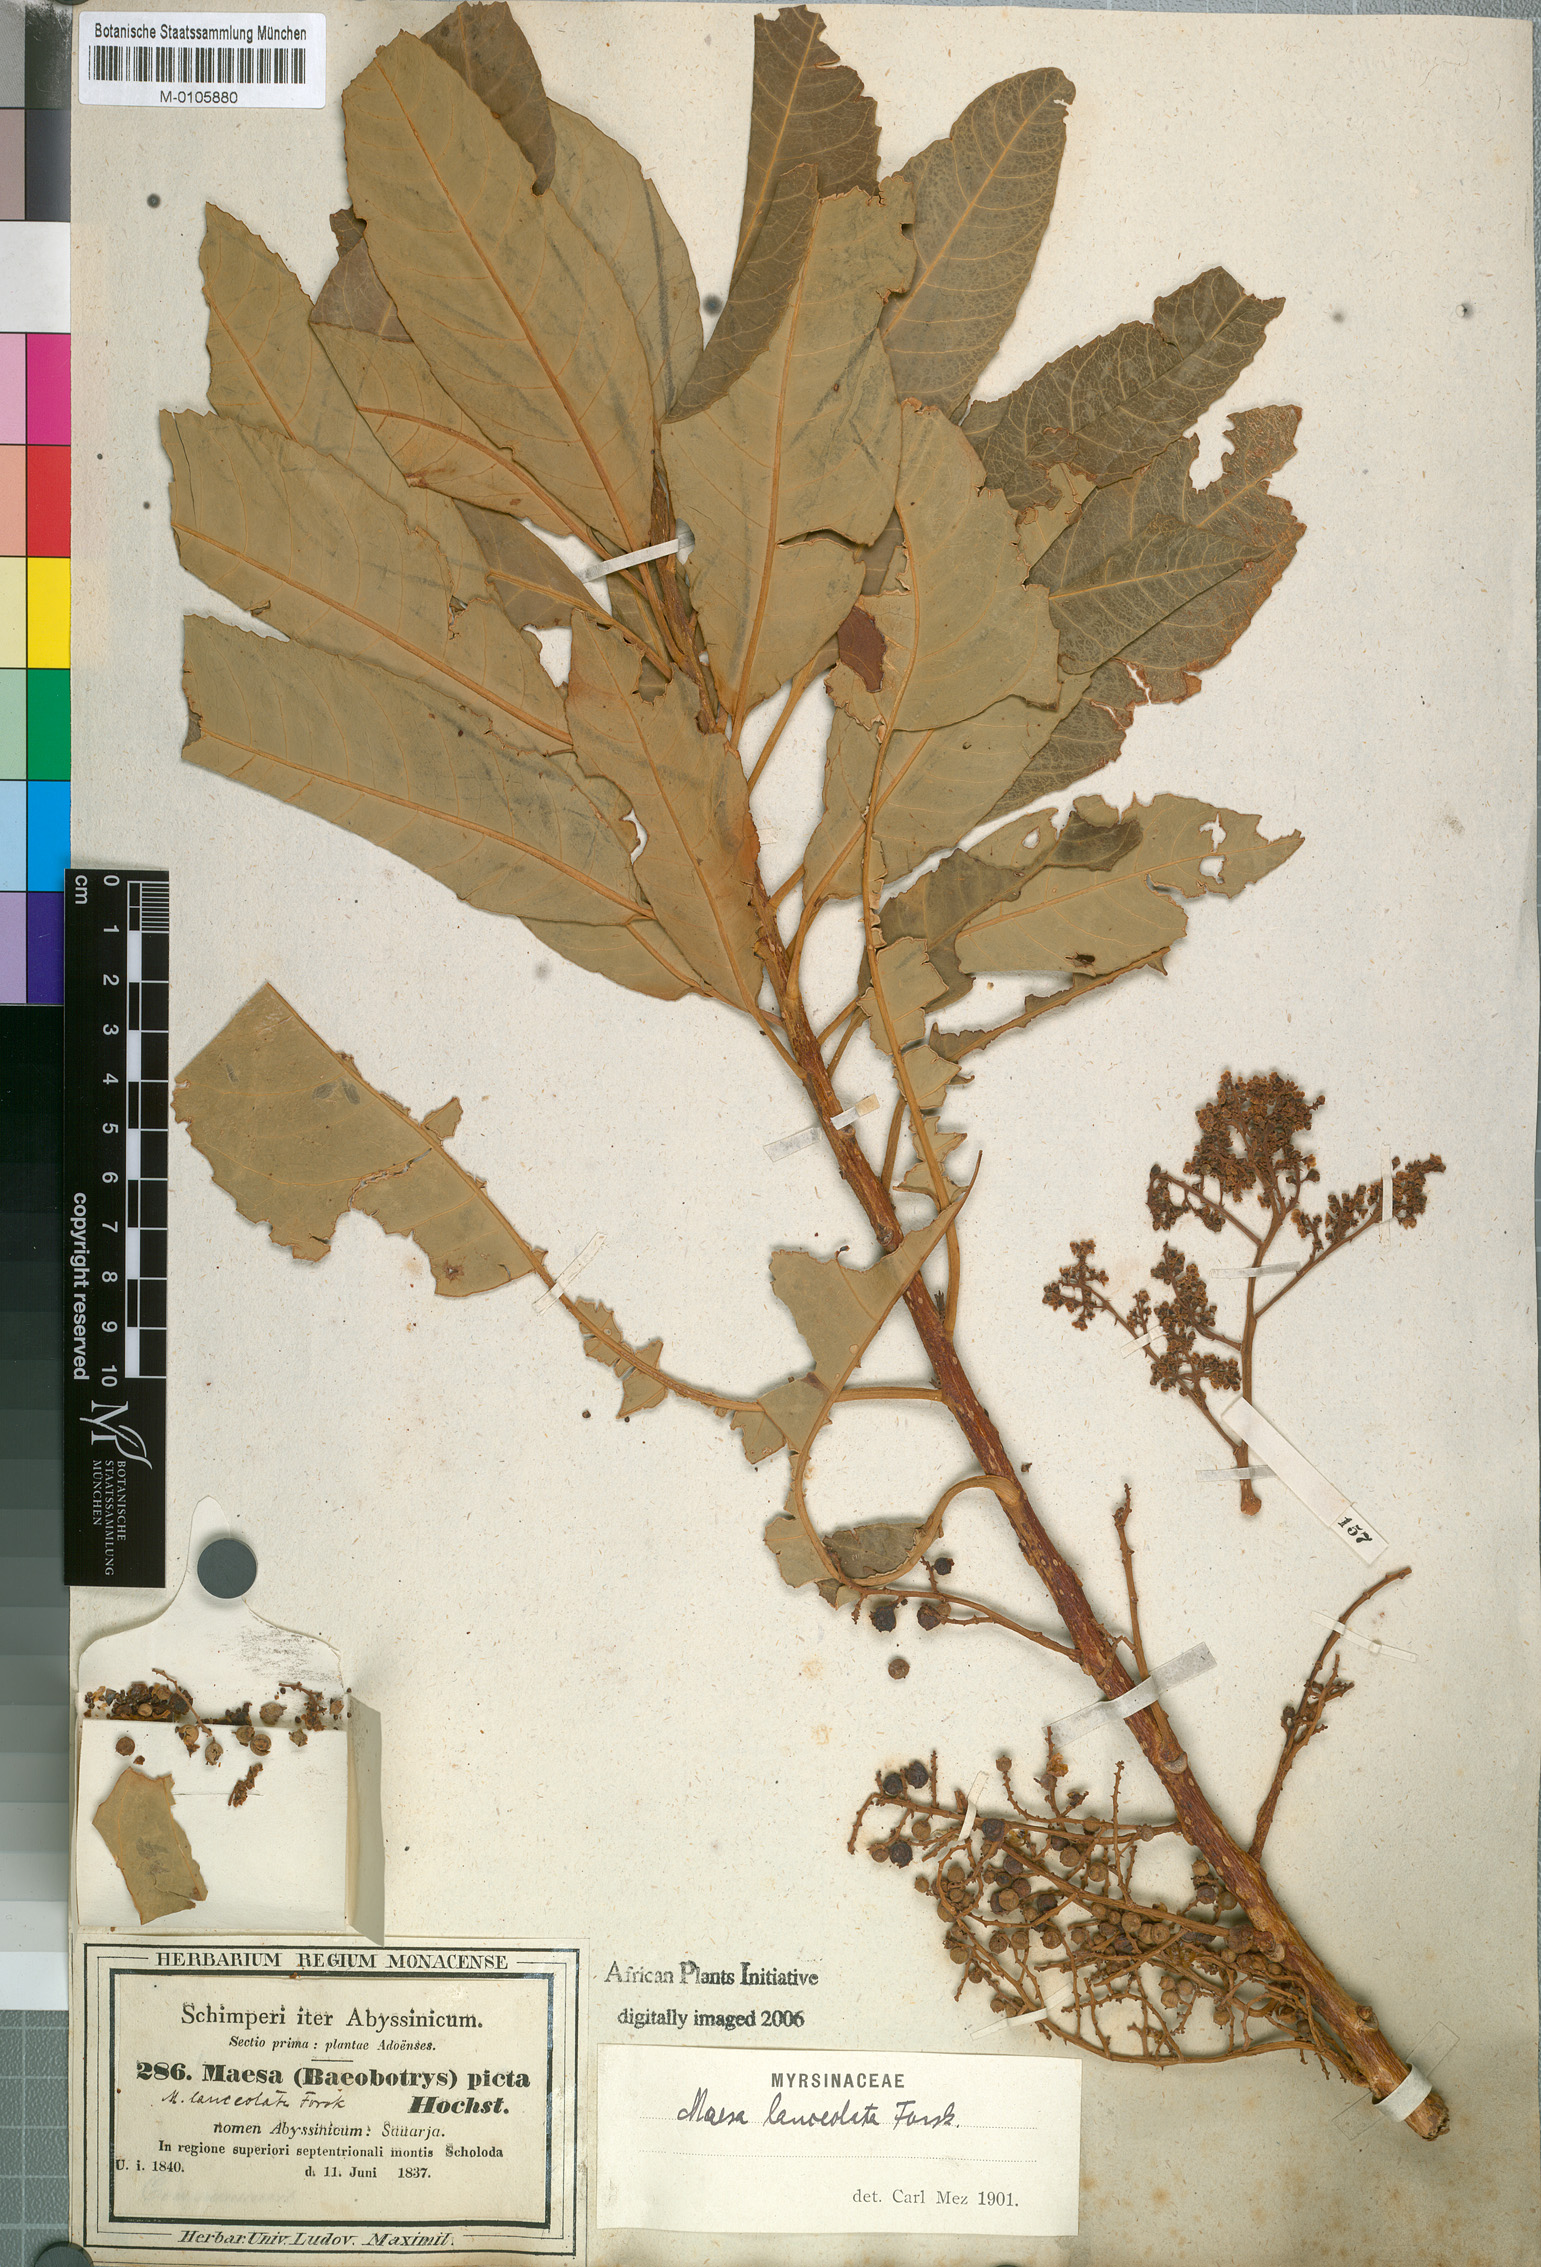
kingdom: Plantae
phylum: Tracheophyta
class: Magnoliopsida
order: Ericales
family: Primulaceae
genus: Maesa
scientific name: Maesa lanceolata
